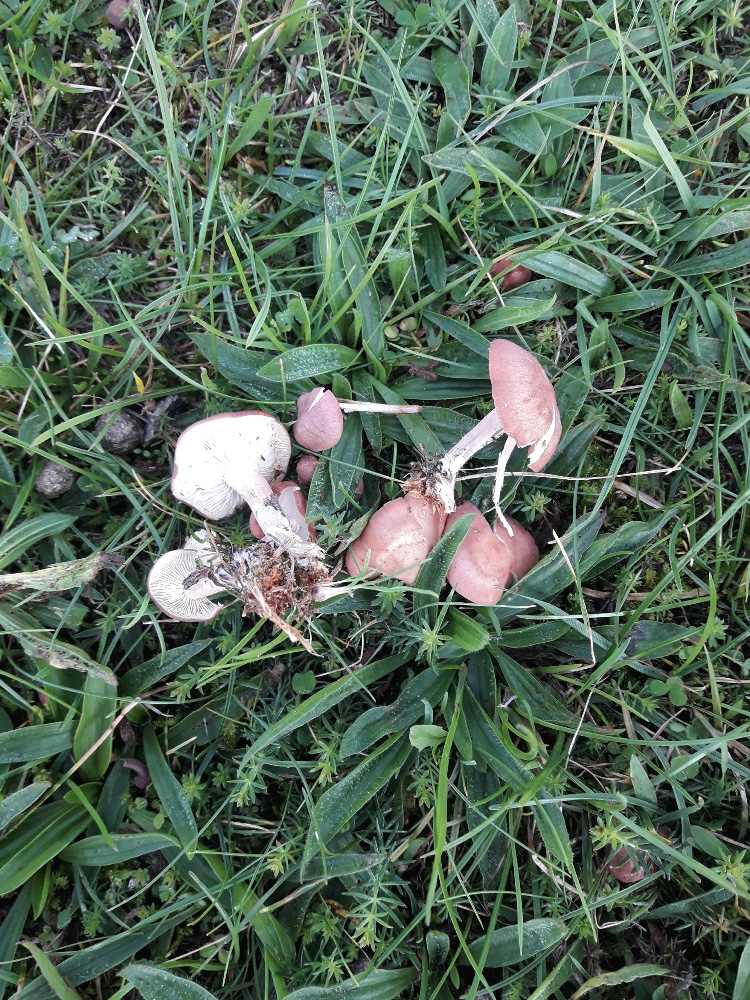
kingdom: Fungi
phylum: Basidiomycota
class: Agaricomycetes
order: Agaricales
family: Lyophyllaceae
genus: Calocybe
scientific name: Calocybe carnea
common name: rosa fagerhat
